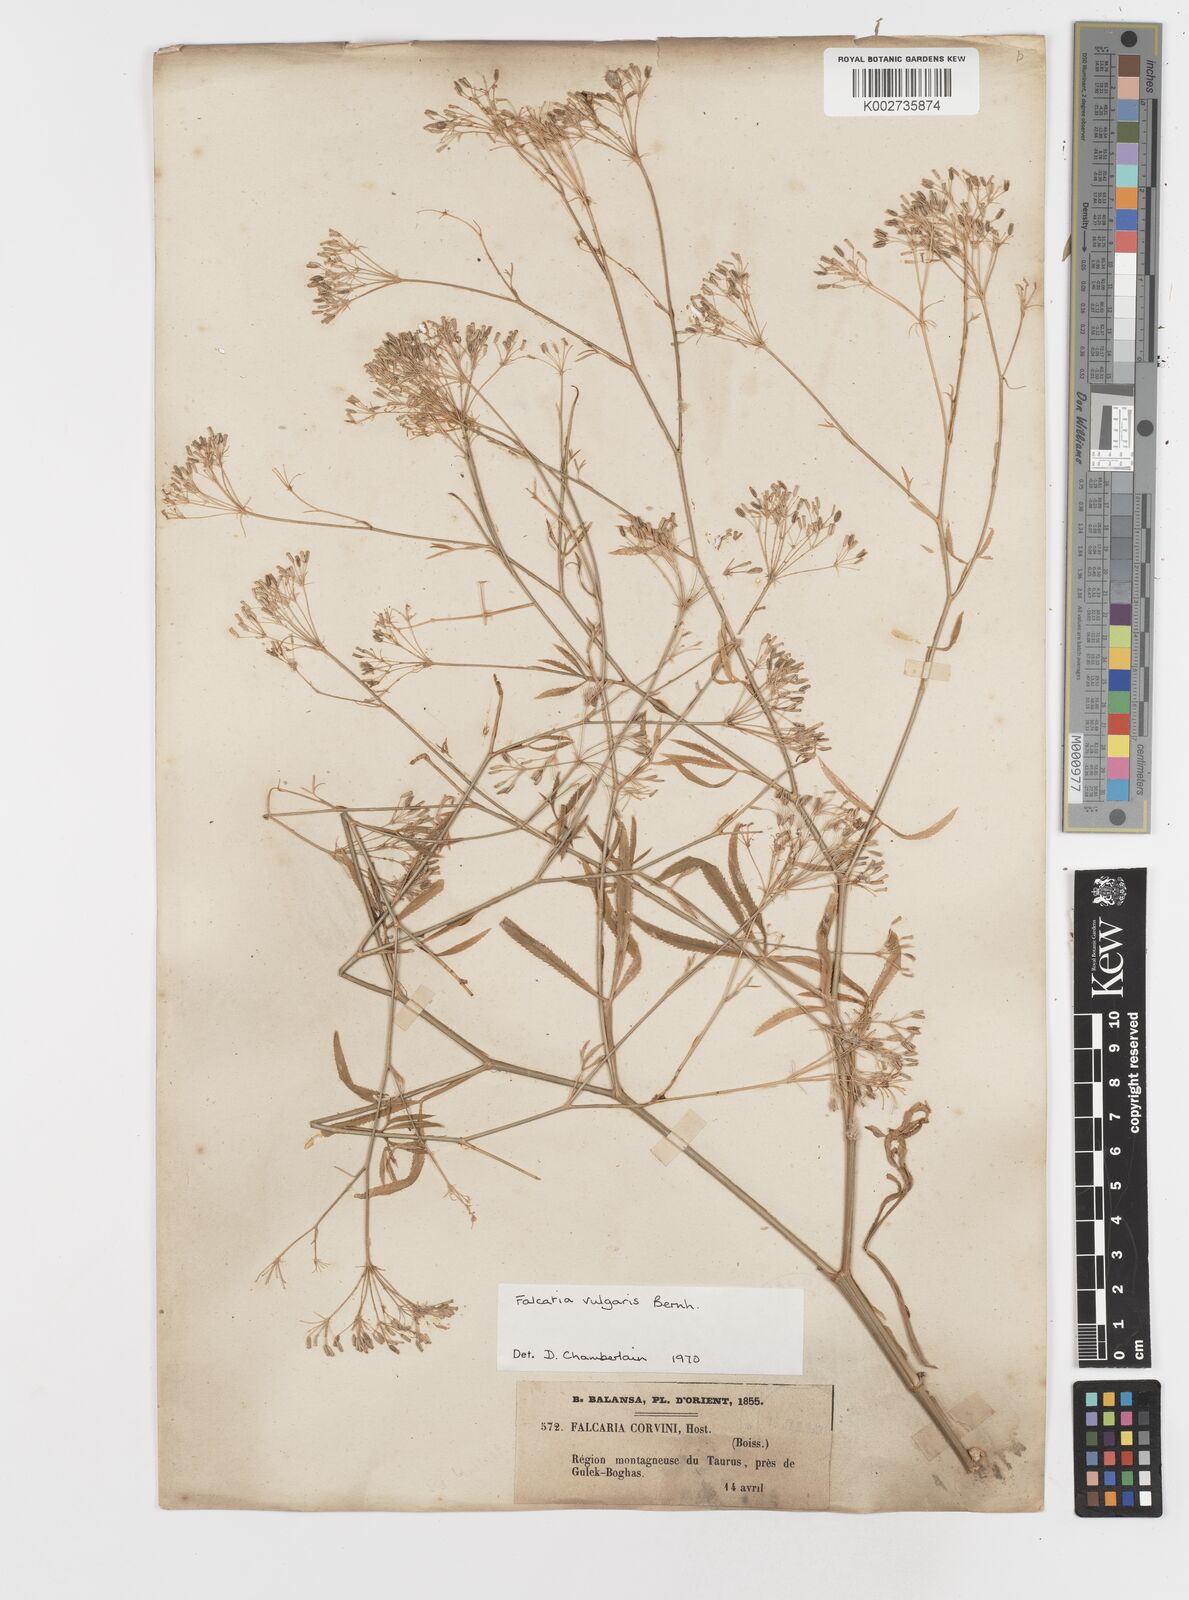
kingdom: Plantae
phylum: Tracheophyta
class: Magnoliopsida
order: Apiales
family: Apiaceae
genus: Falcaria
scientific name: Falcaria vulgaris
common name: Longleaf
